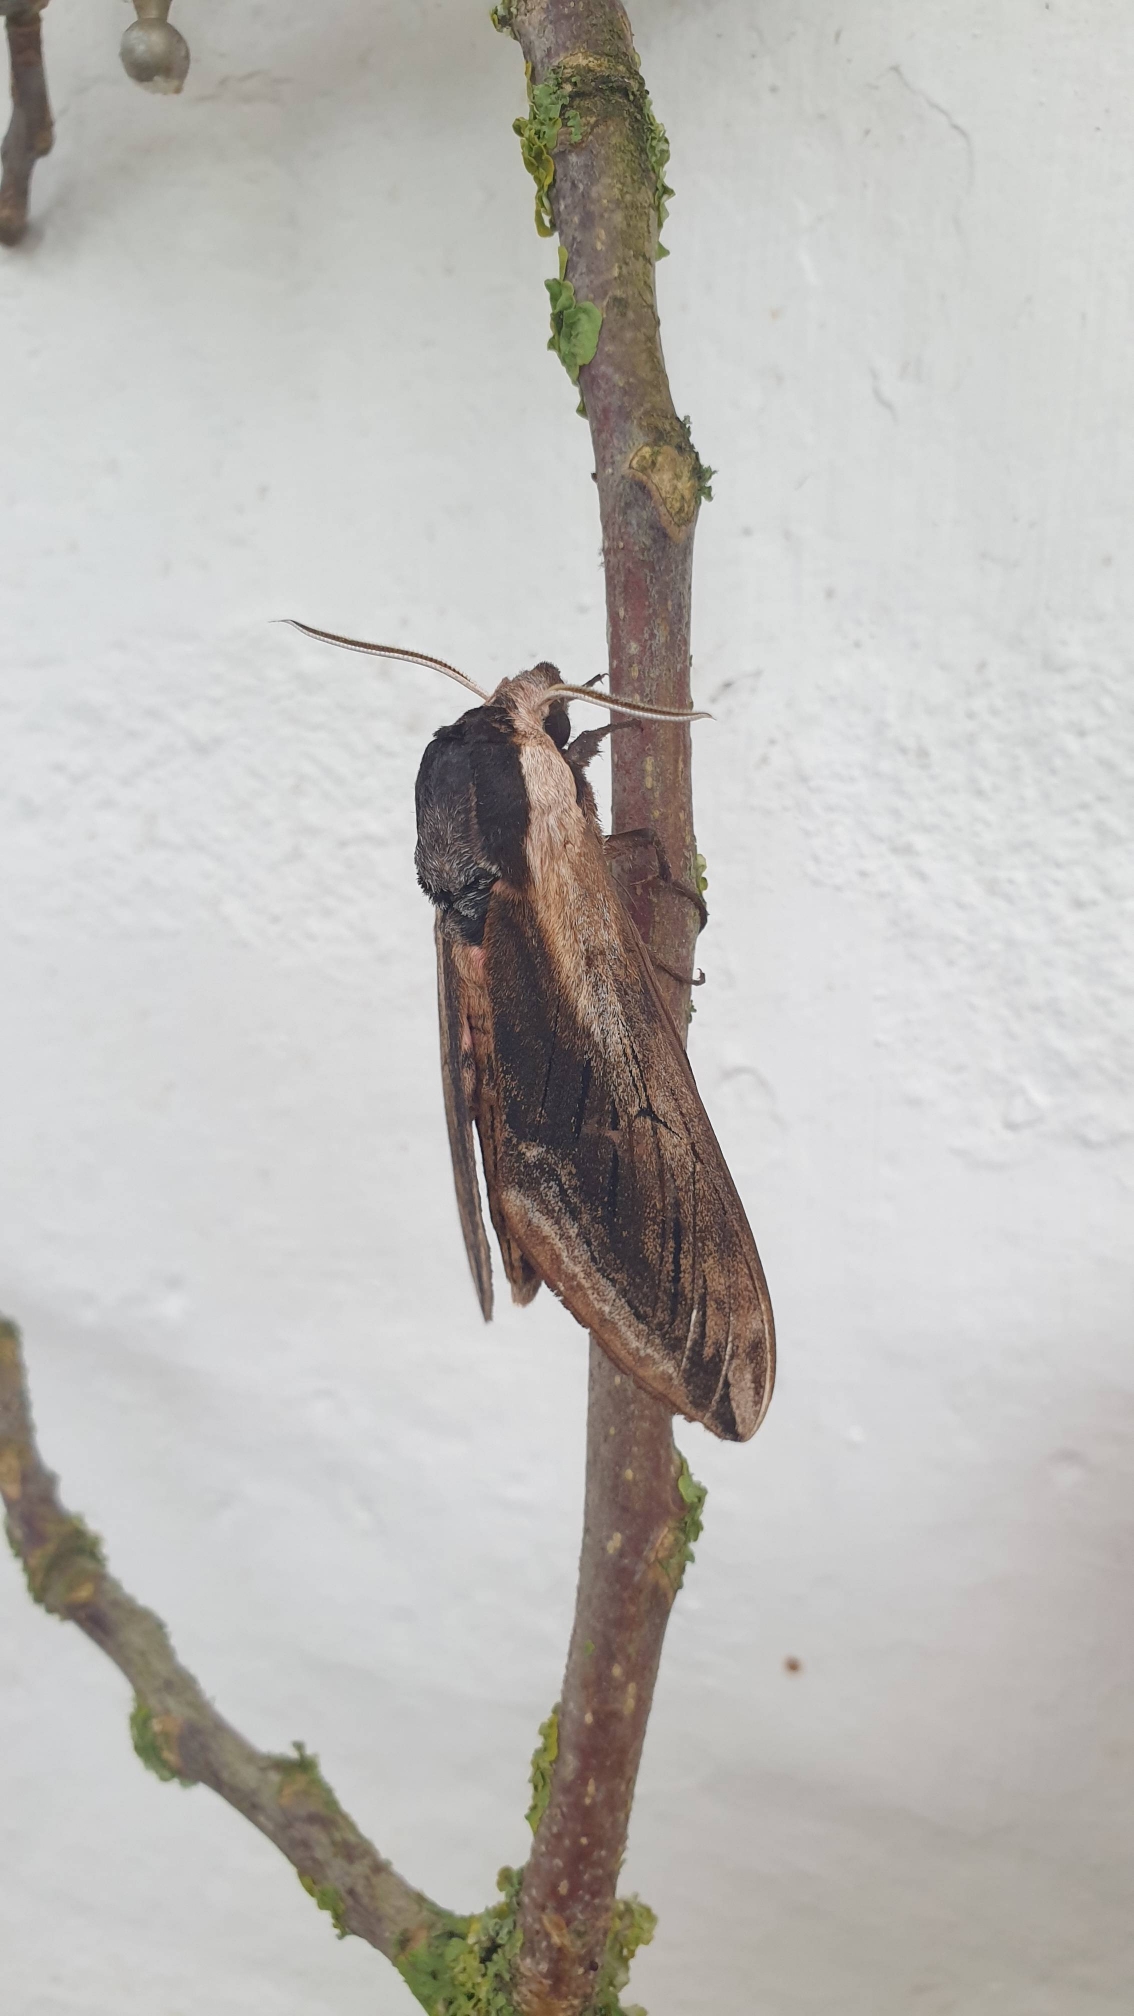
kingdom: Animalia
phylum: Arthropoda
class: Insecta
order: Lepidoptera
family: Sphingidae
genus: Sphinx
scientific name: Sphinx ligustri
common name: Ligustersværmer
